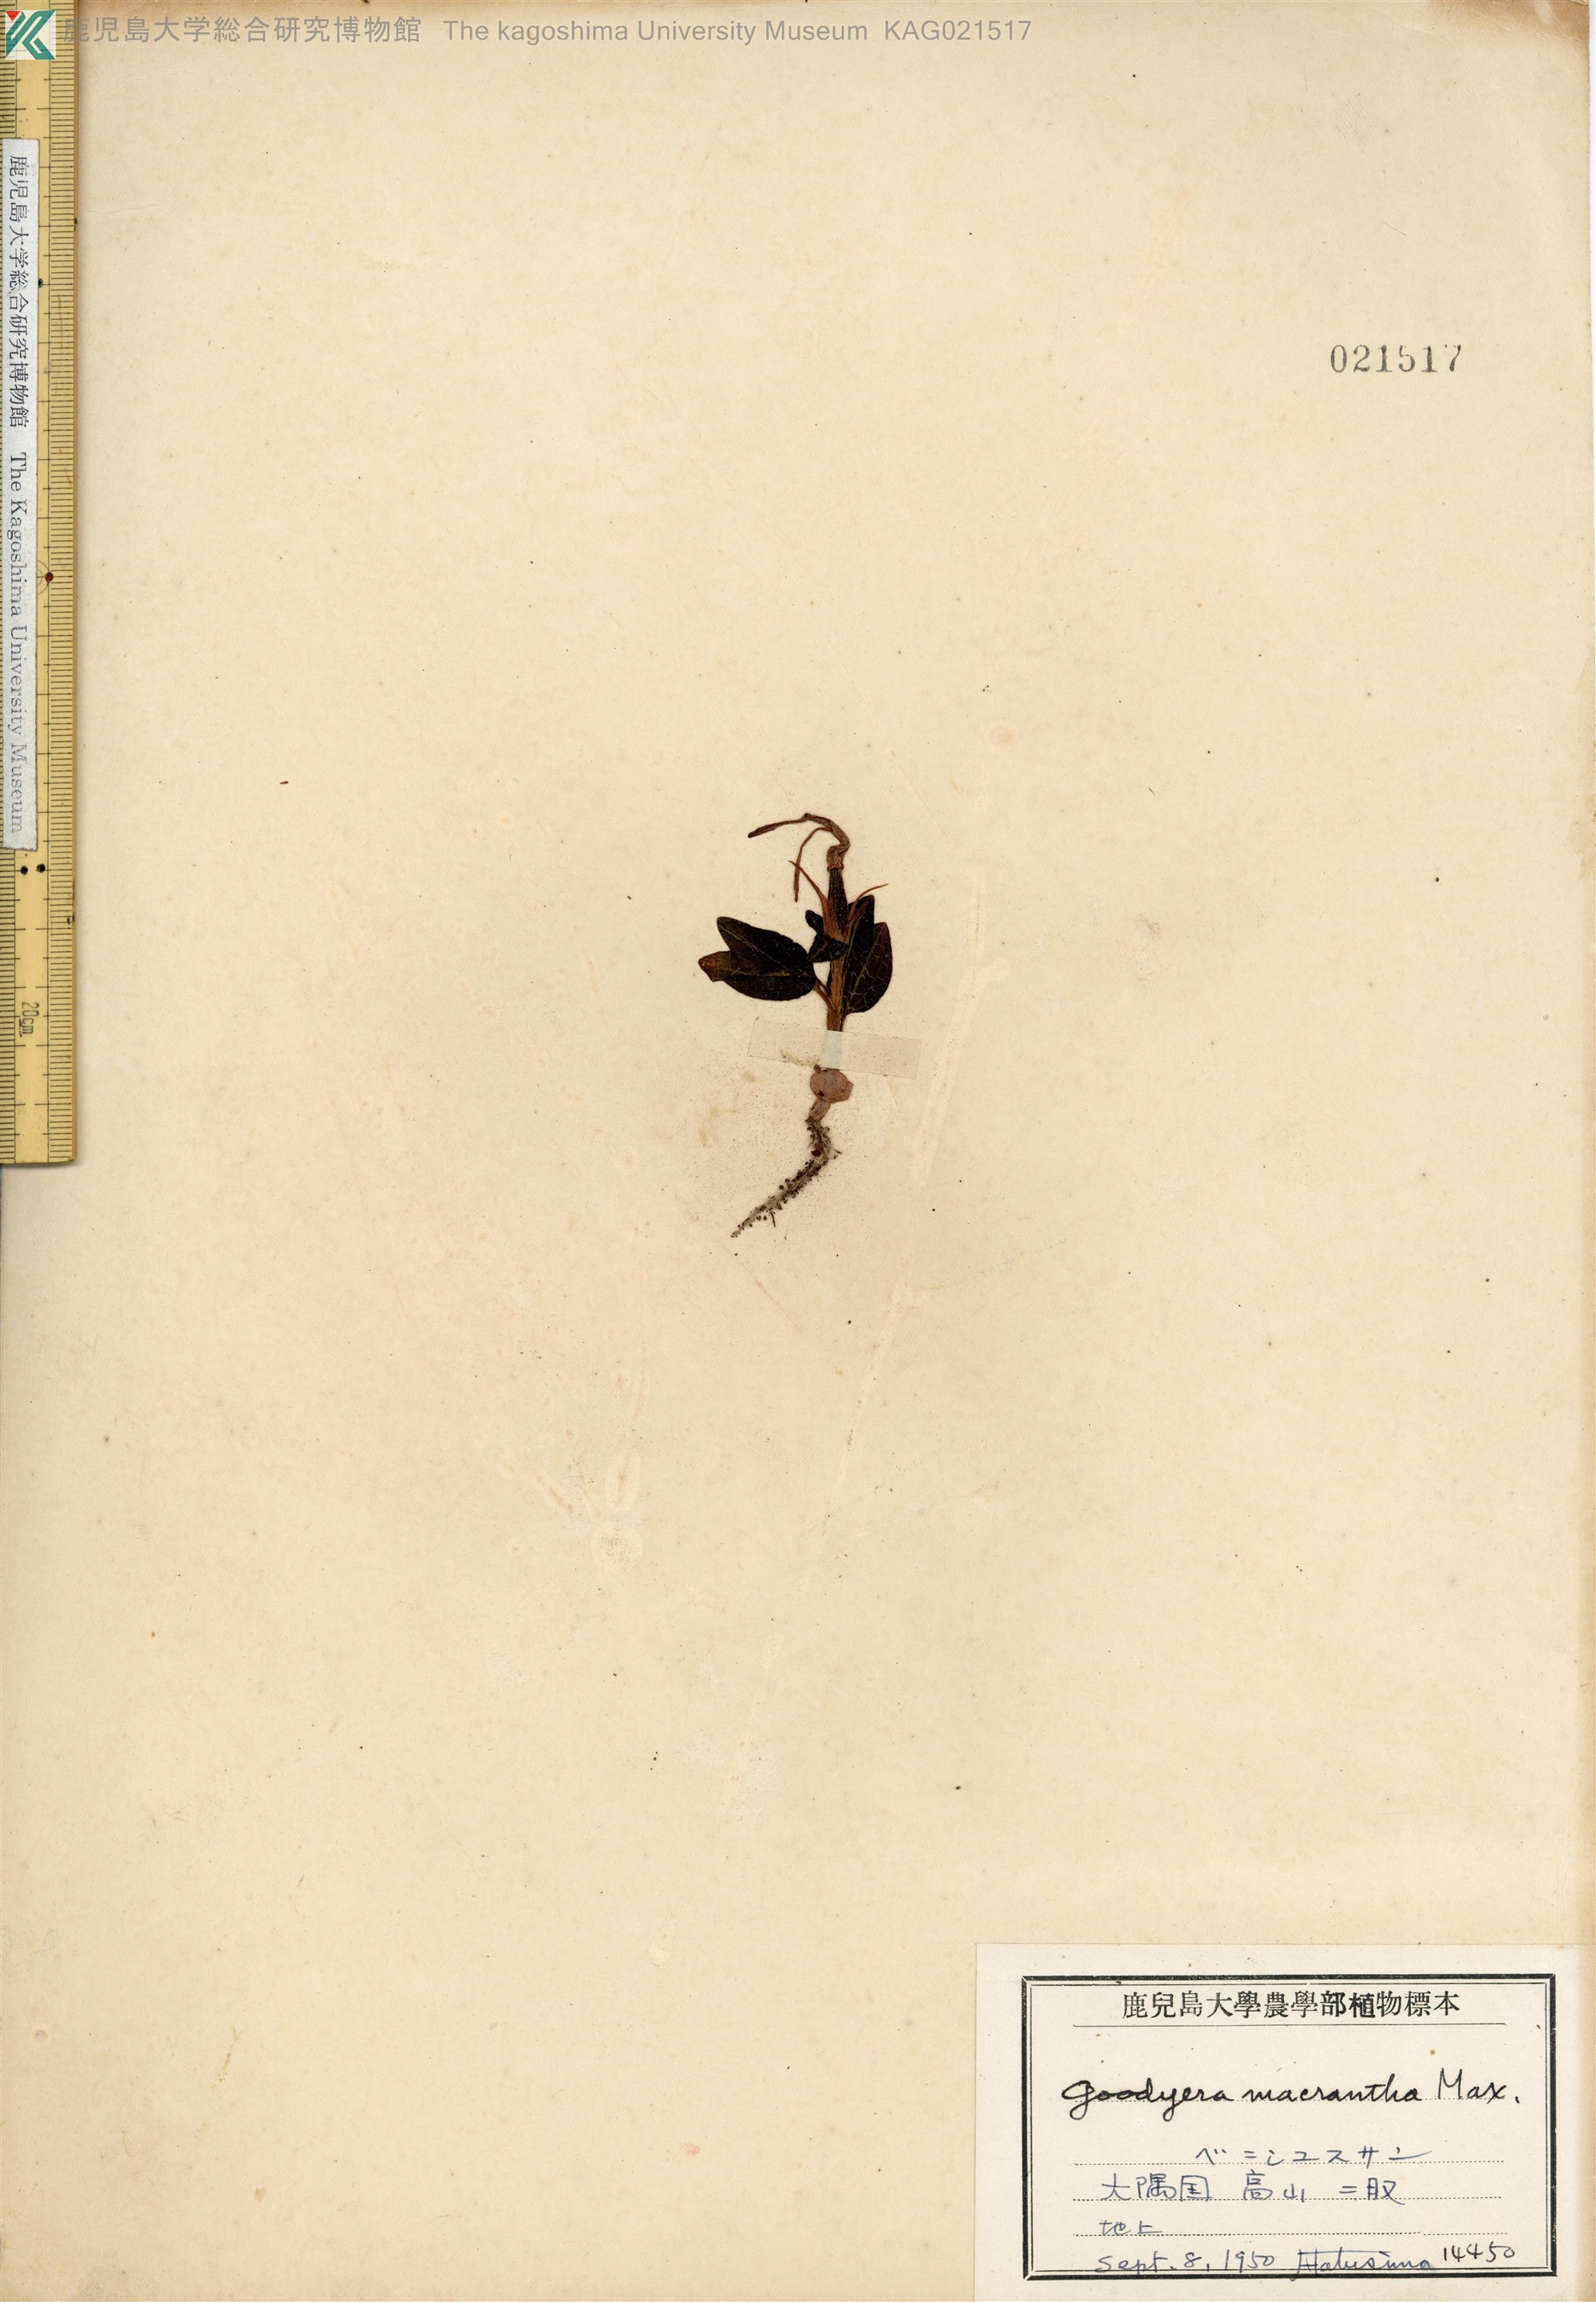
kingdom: Plantae
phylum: Tracheophyta
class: Liliopsida
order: Asparagales
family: Orchidaceae
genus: Goodyera
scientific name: Goodyera biflora
